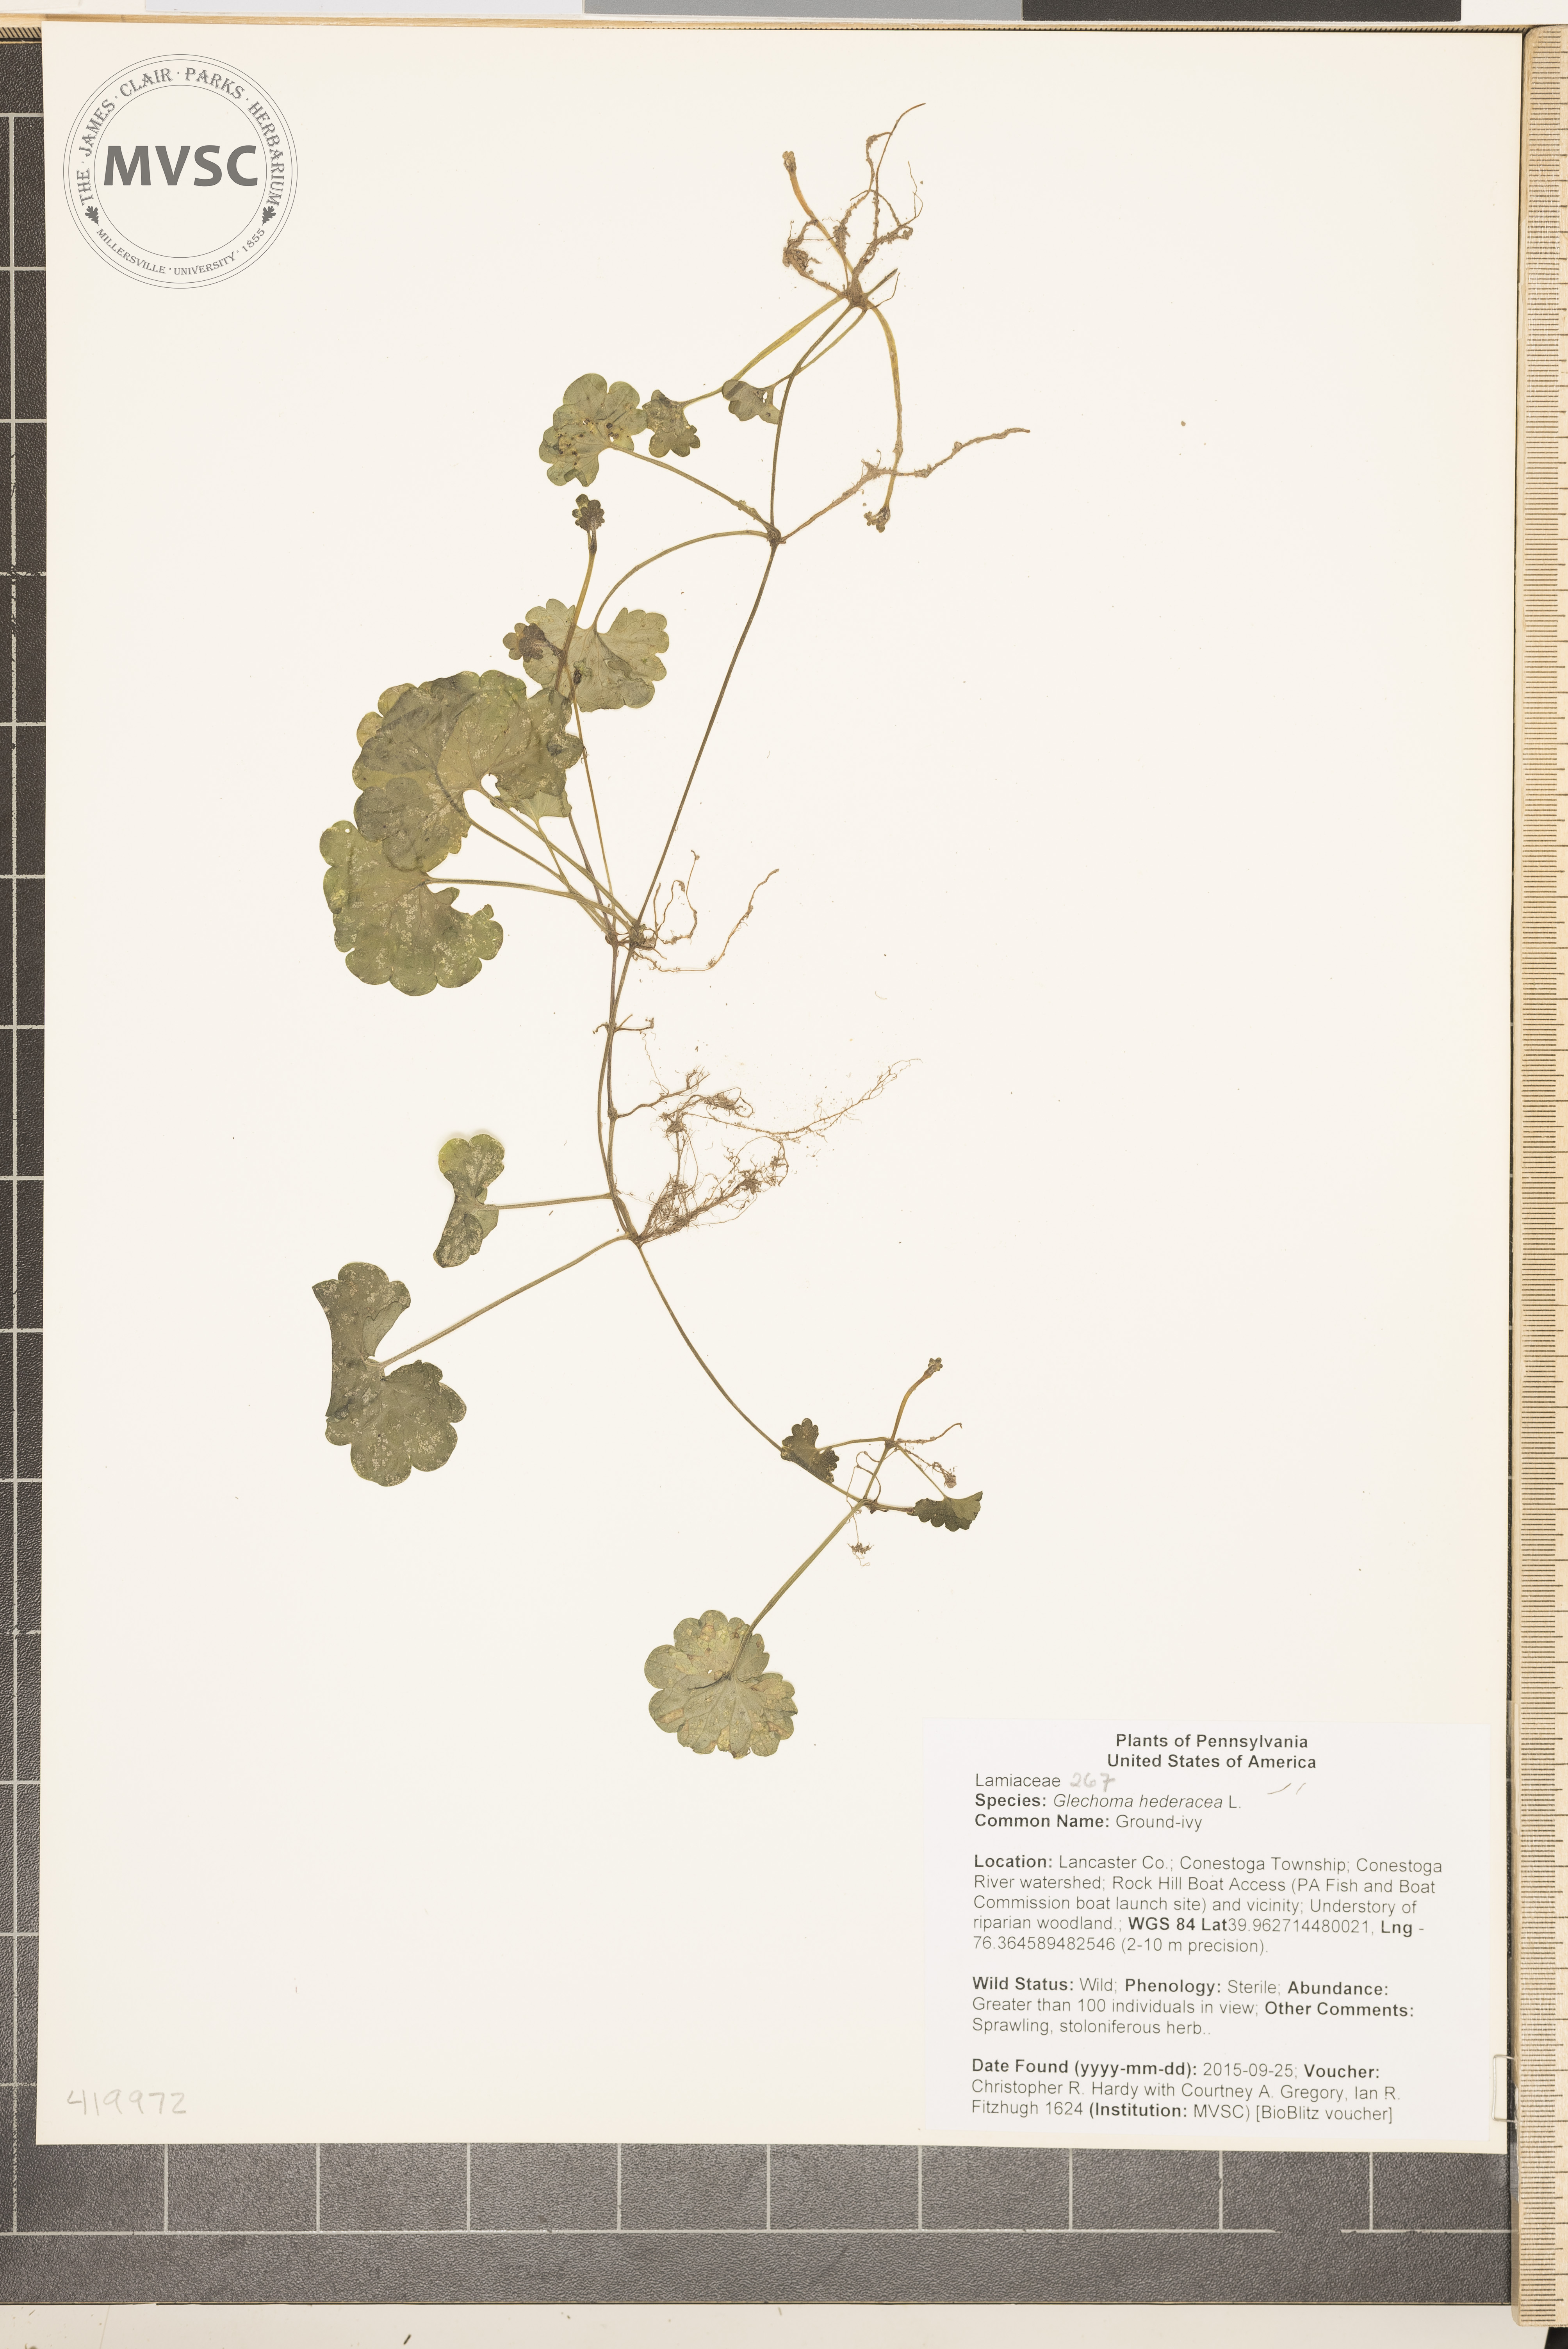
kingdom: Plantae
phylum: Tracheophyta
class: Magnoliopsida
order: Lamiales
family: Lamiaceae
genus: Glechoma
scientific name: Glechoma hederacea
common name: Ground-ivy
